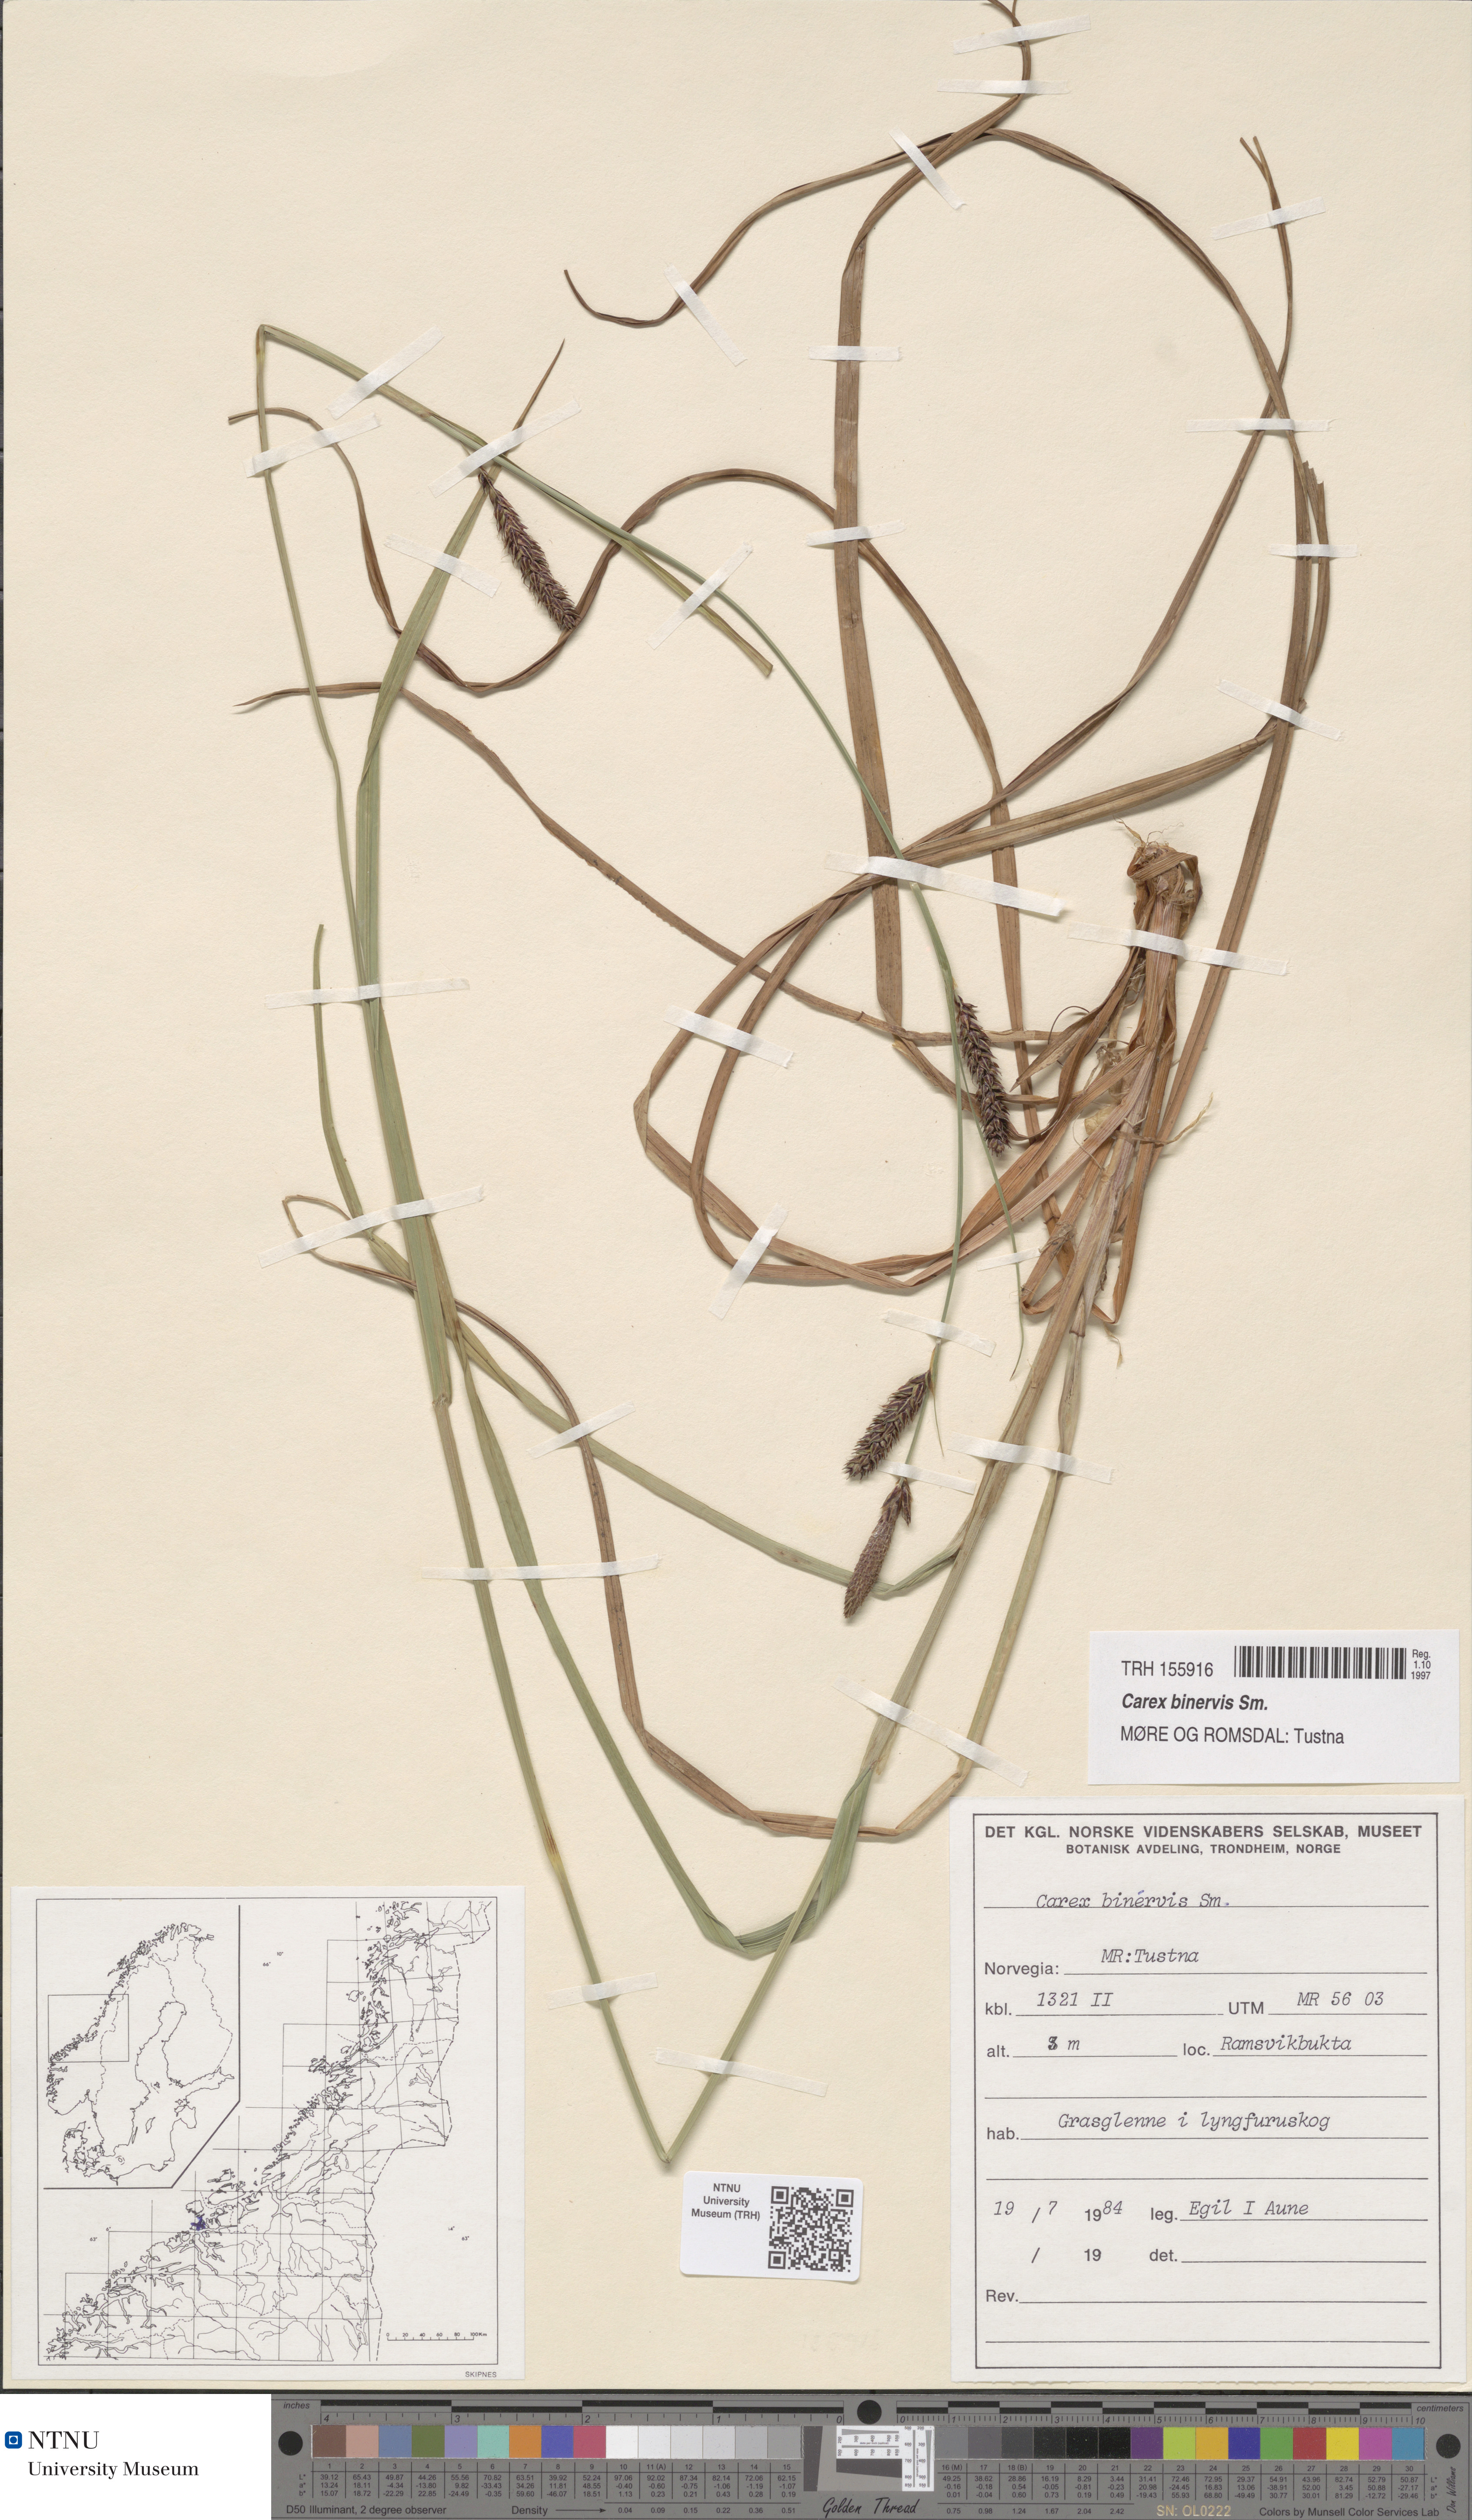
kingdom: Plantae
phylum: Tracheophyta
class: Liliopsida
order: Poales
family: Cyperaceae
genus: Carex
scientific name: Carex binervis
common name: Green-ribbed sedge
